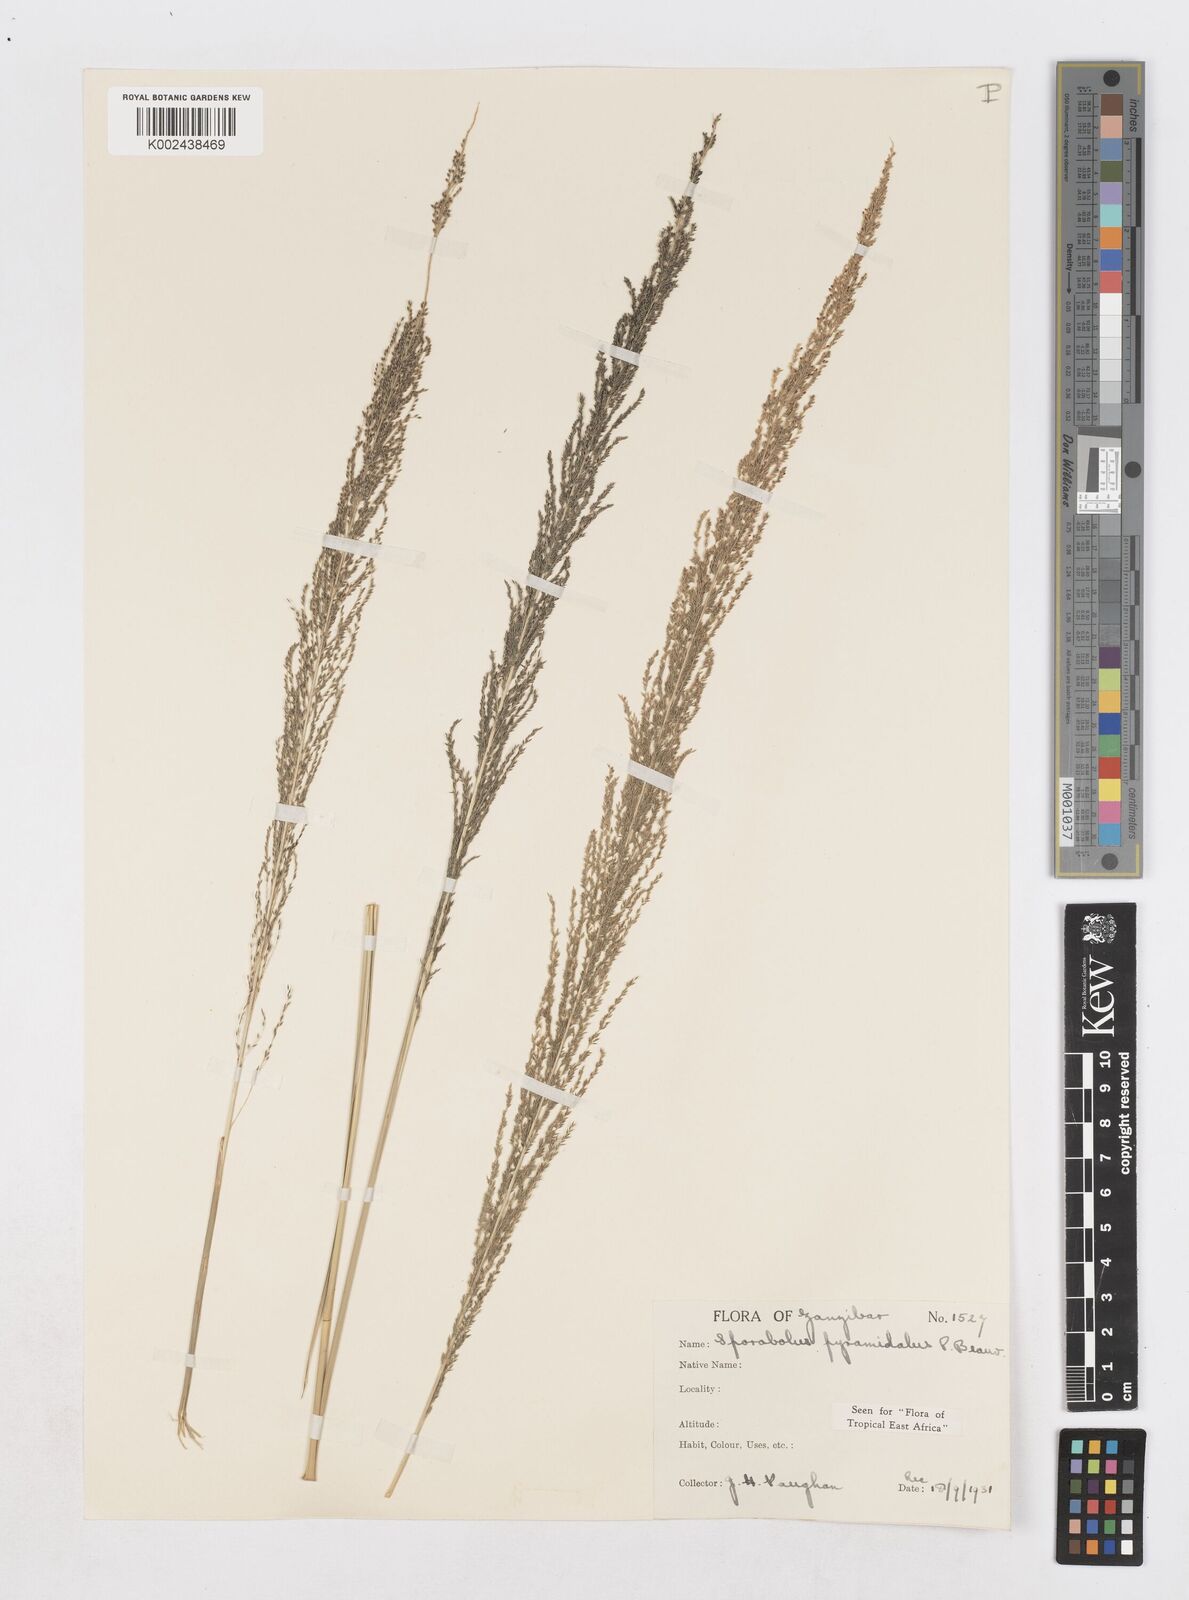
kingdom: Plantae
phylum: Tracheophyta
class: Liliopsida
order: Poales
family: Poaceae
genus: Sporobolus
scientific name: Sporobolus pyramidalis
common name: West indian dropseed
